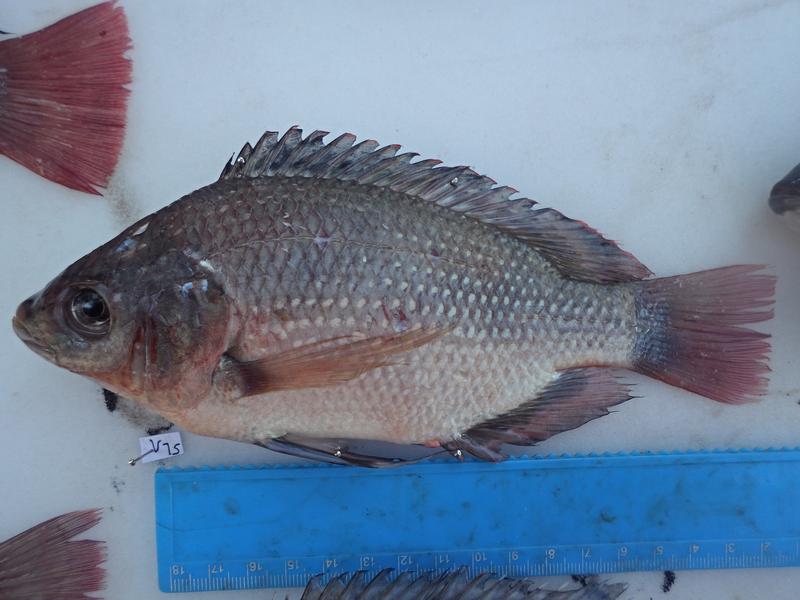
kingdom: Animalia
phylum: Chordata
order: Perciformes
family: Cichlidae
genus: Oreochromis
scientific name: Oreochromis esculentus
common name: Carp
